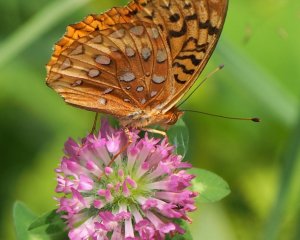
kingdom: Animalia
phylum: Arthropoda
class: Insecta
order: Lepidoptera
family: Nymphalidae
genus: Speyeria
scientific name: Speyeria cybele
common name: Great Spangled Fritillary
